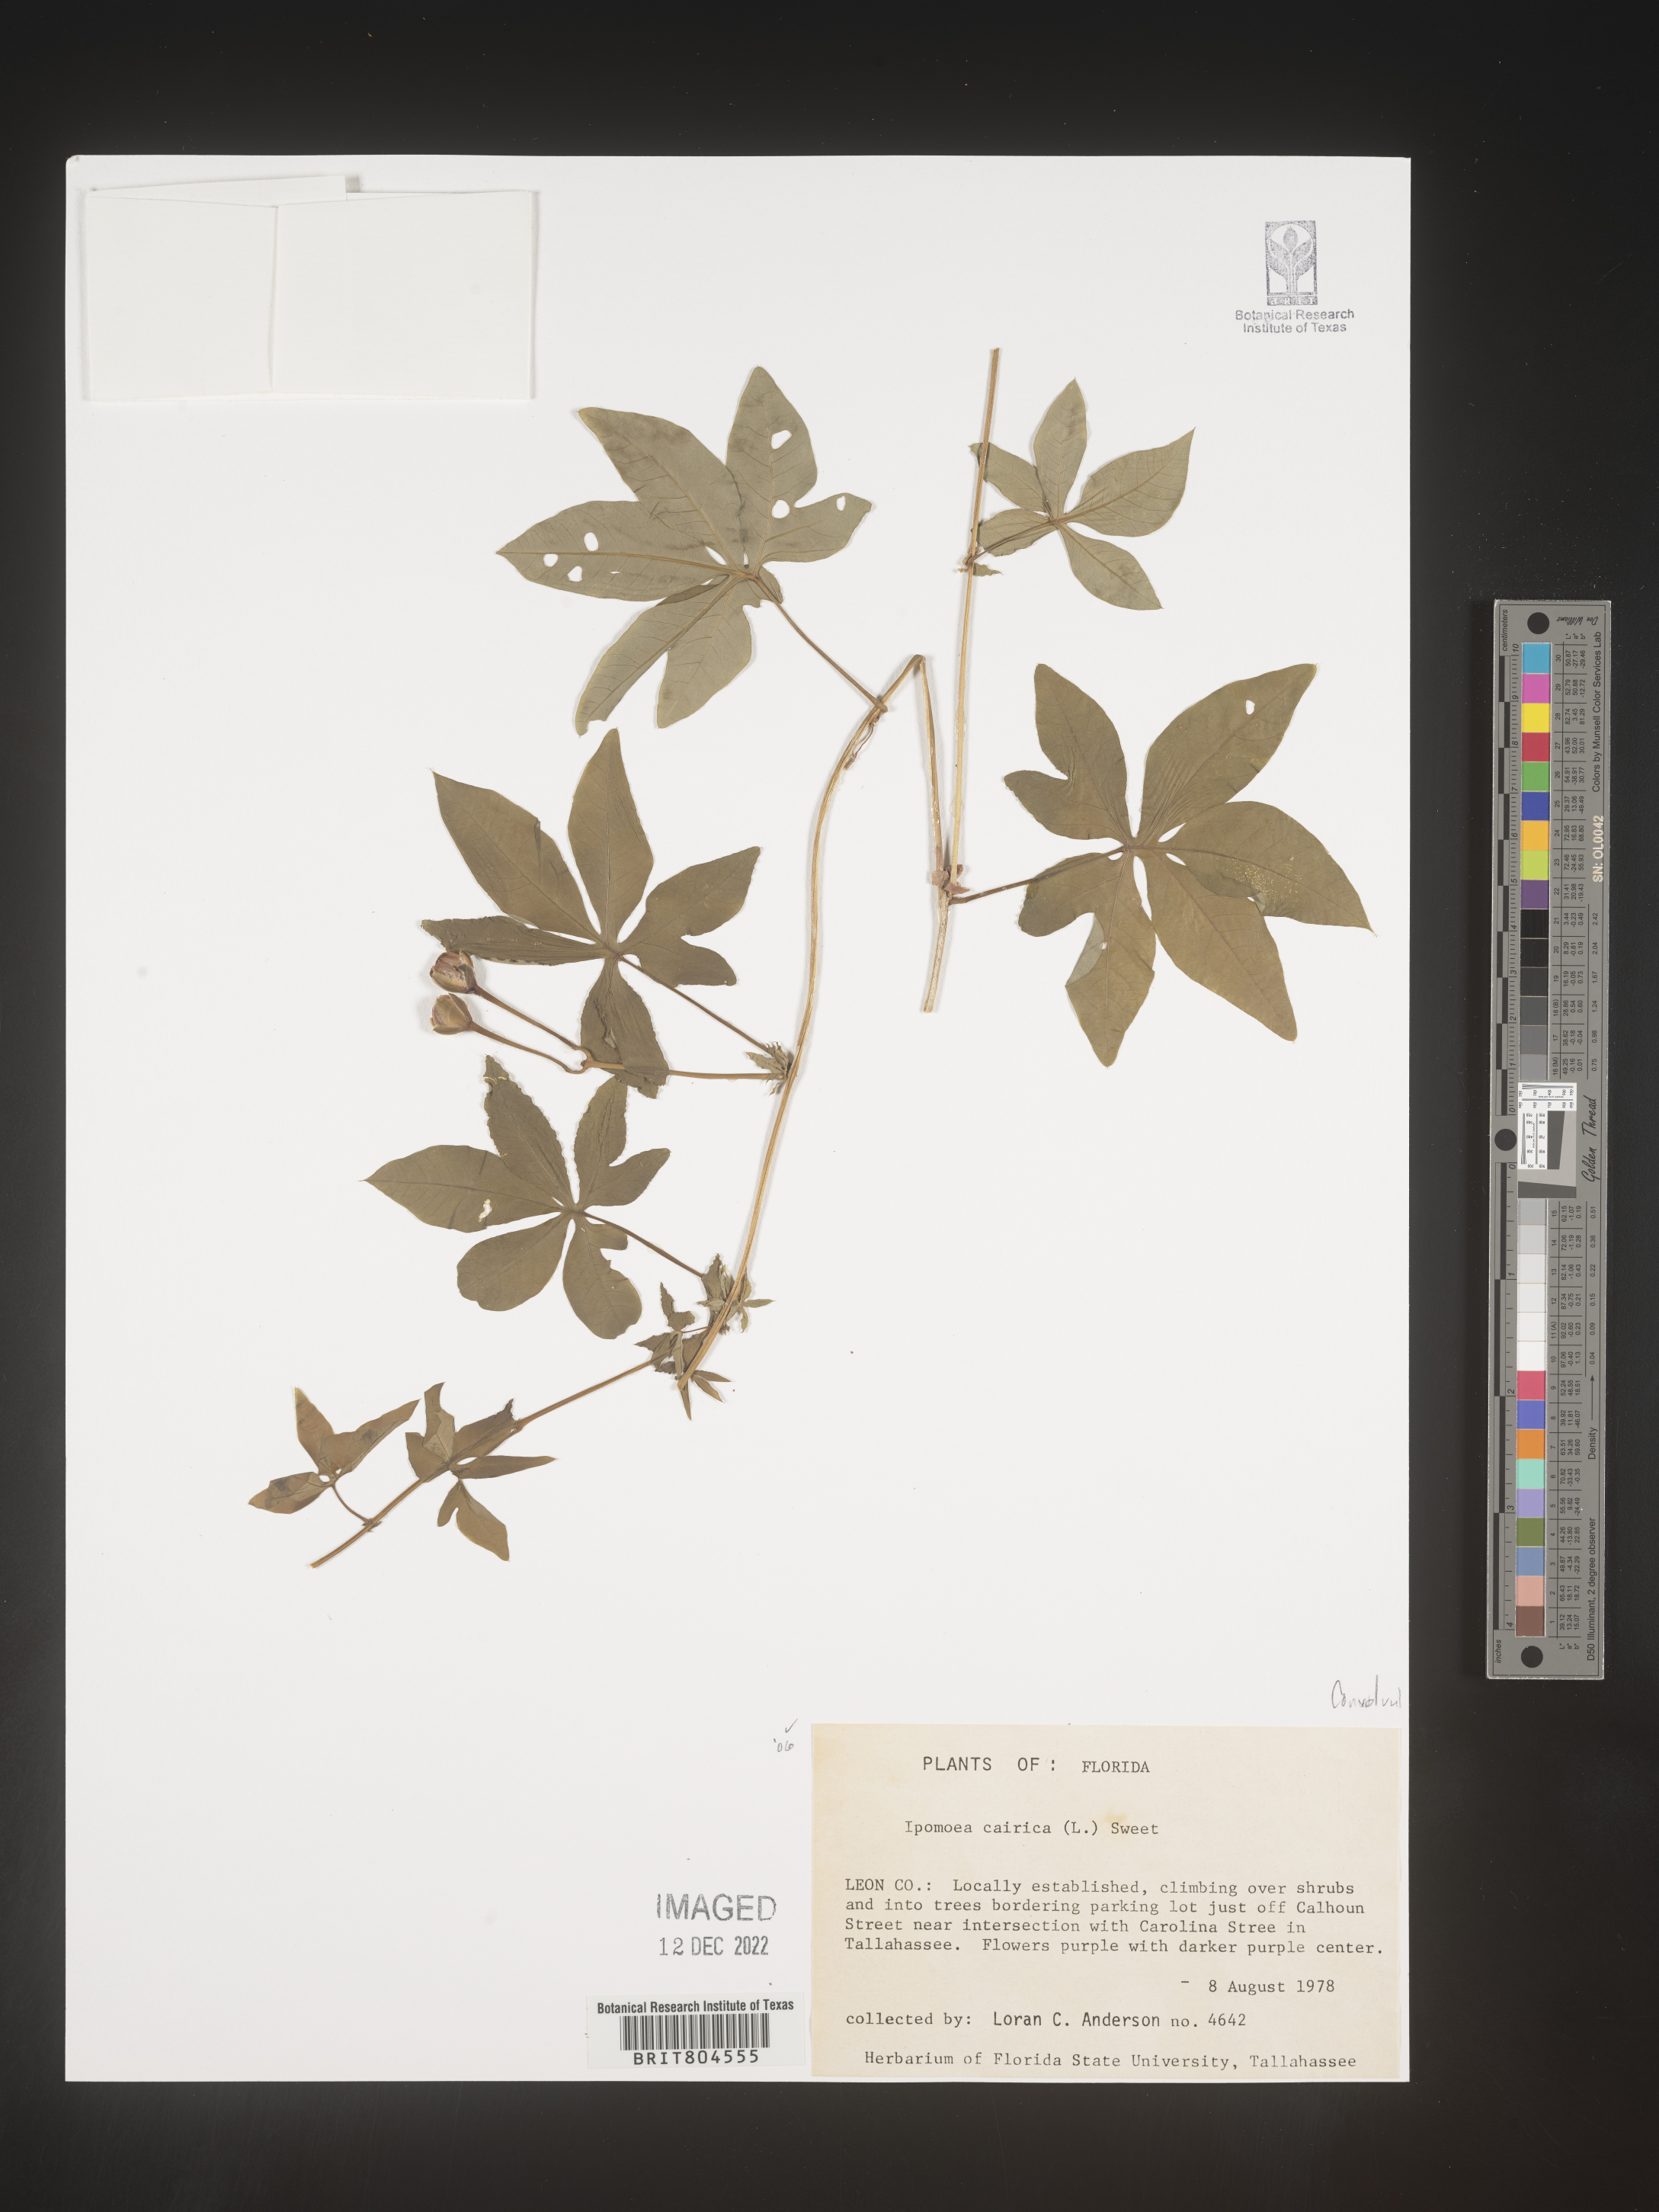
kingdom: Plantae
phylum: Tracheophyta
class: Magnoliopsida
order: Solanales
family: Convolvulaceae
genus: Ipomoea
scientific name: Ipomoea cairica
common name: Mile a minute vine
